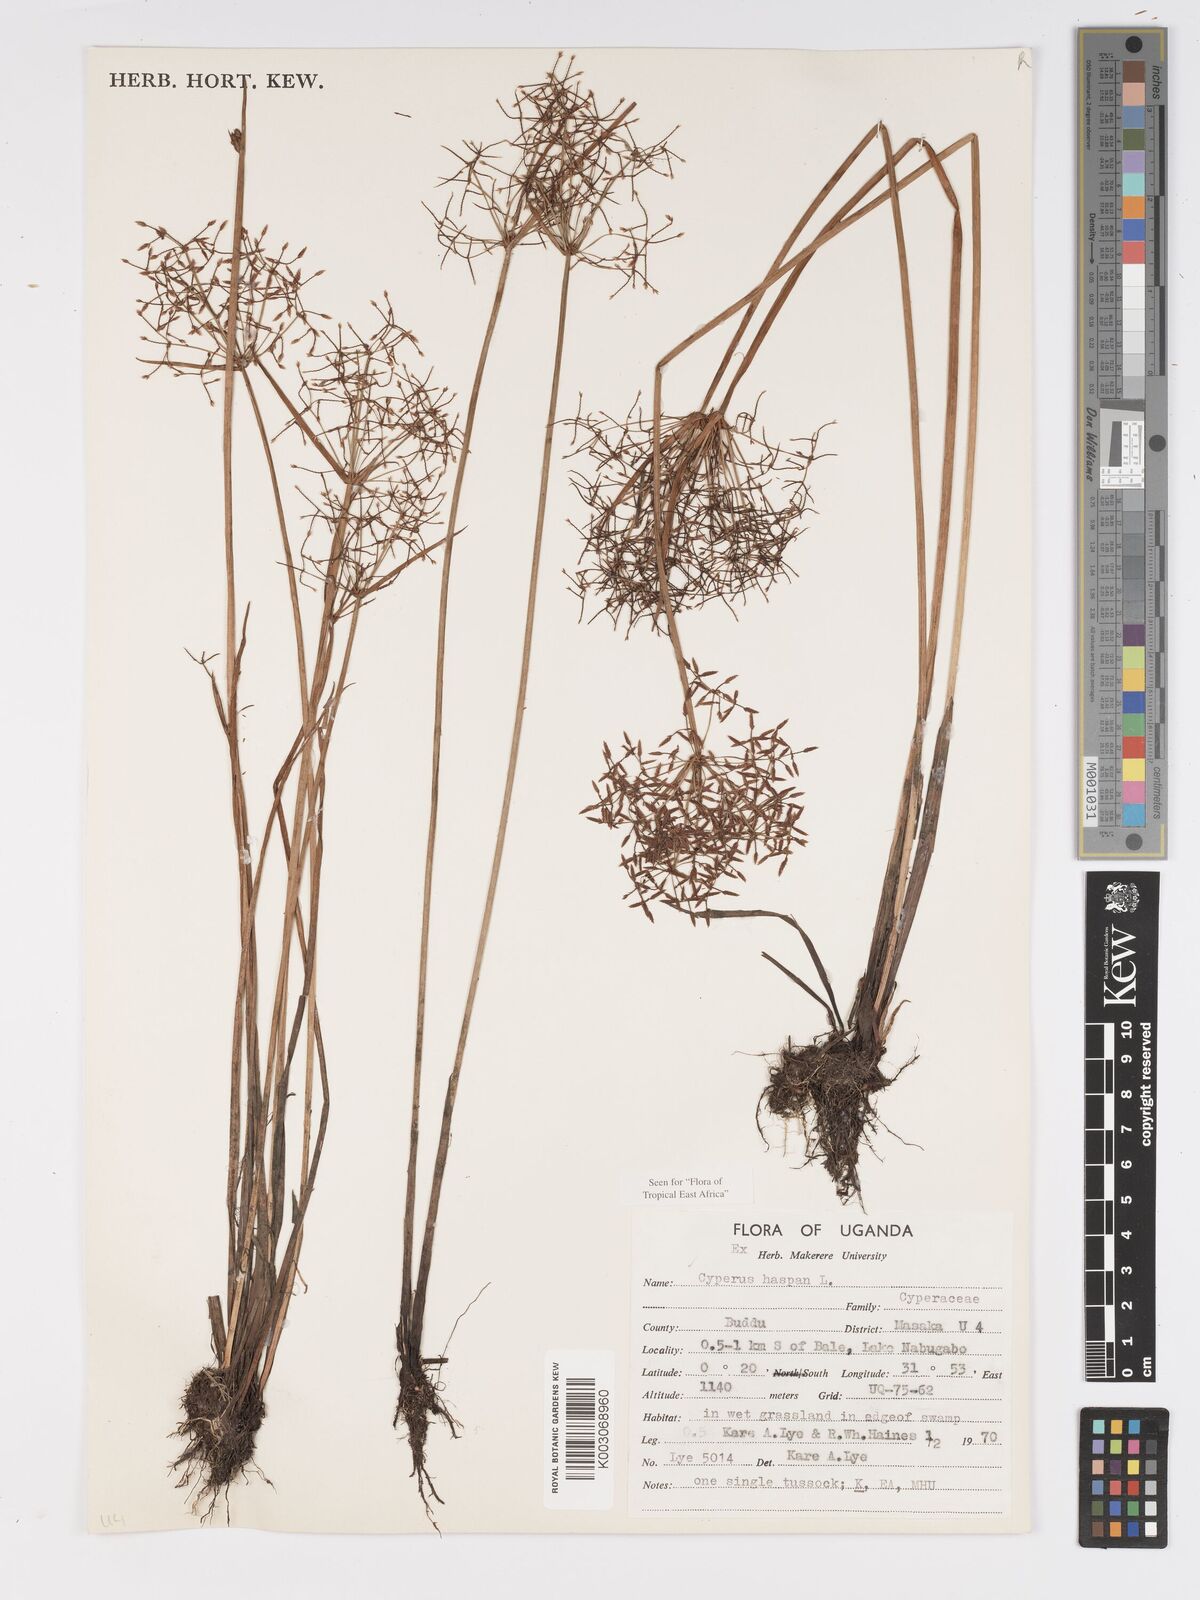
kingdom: Plantae
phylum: Tracheophyta
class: Liliopsida
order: Poales
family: Cyperaceae
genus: Cyperus
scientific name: Cyperus haspan
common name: Haspan flatsedge
